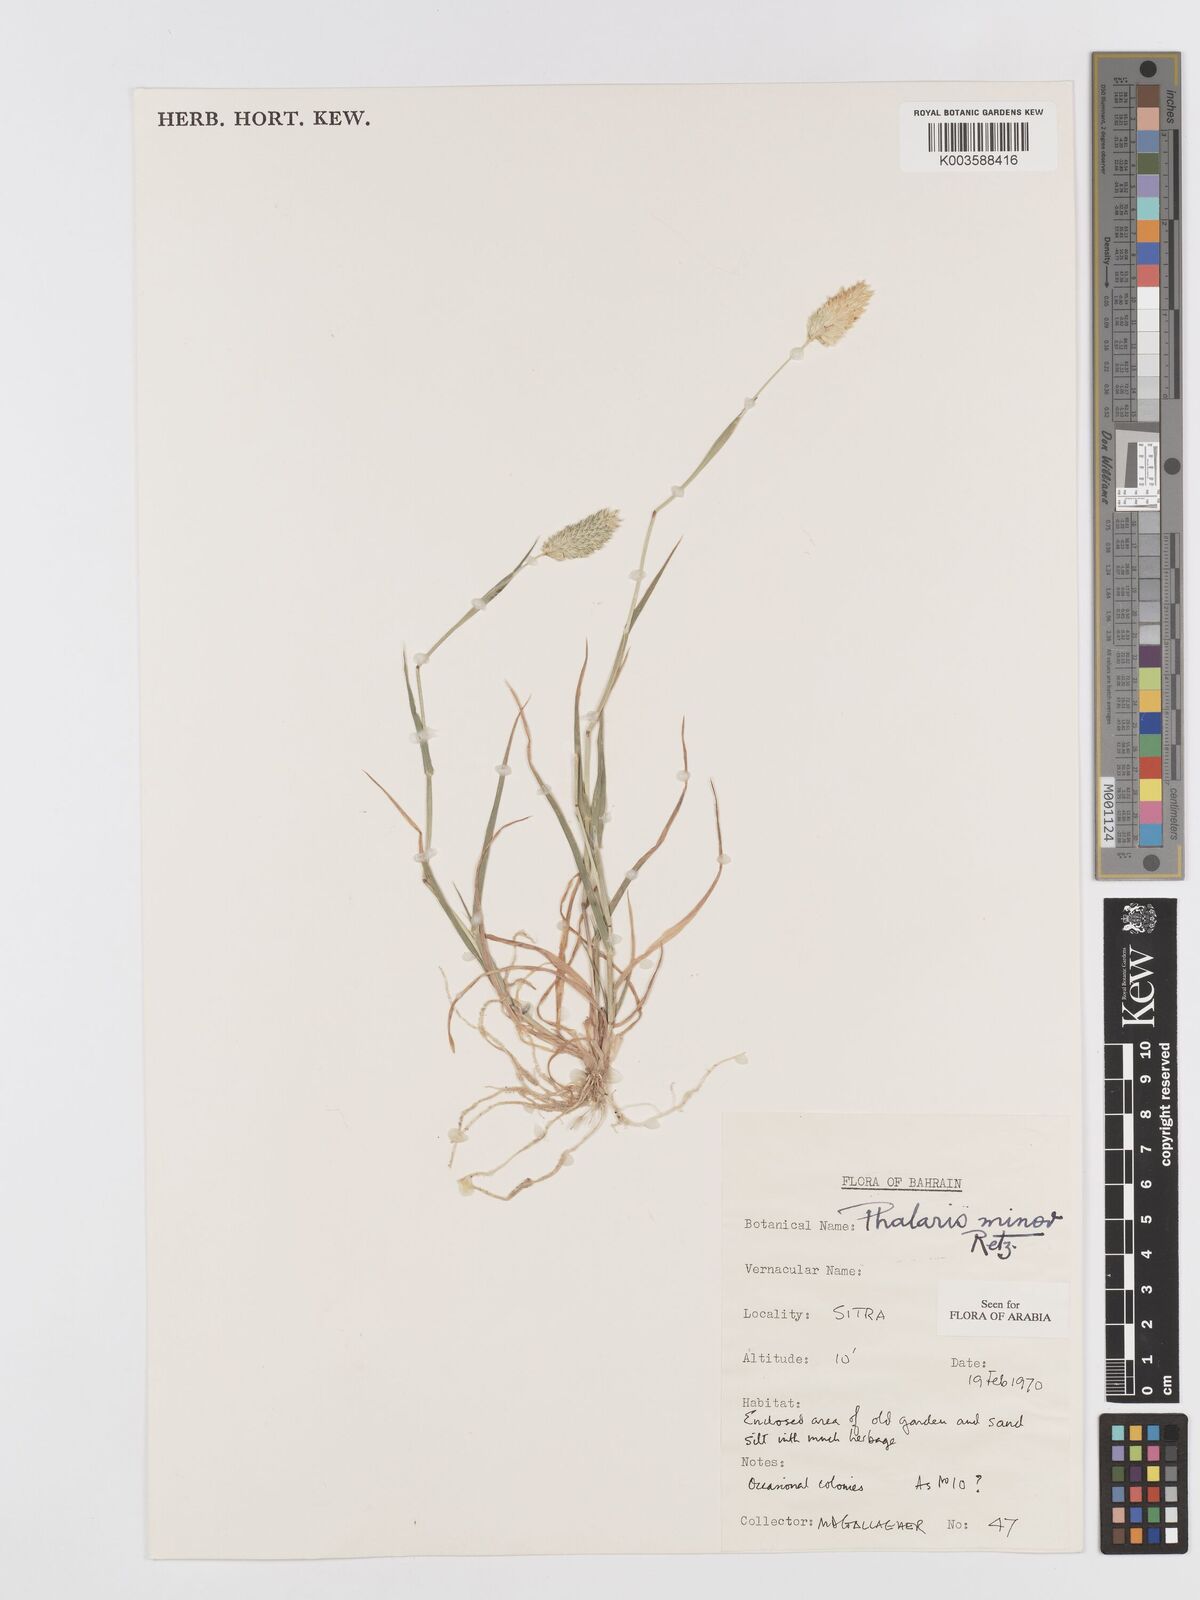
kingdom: Plantae
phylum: Tracheophyta
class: Liliopsida
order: Poales
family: Poaceae
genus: Phalaris
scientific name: Phalaris minor
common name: Littleseed canarygrass
